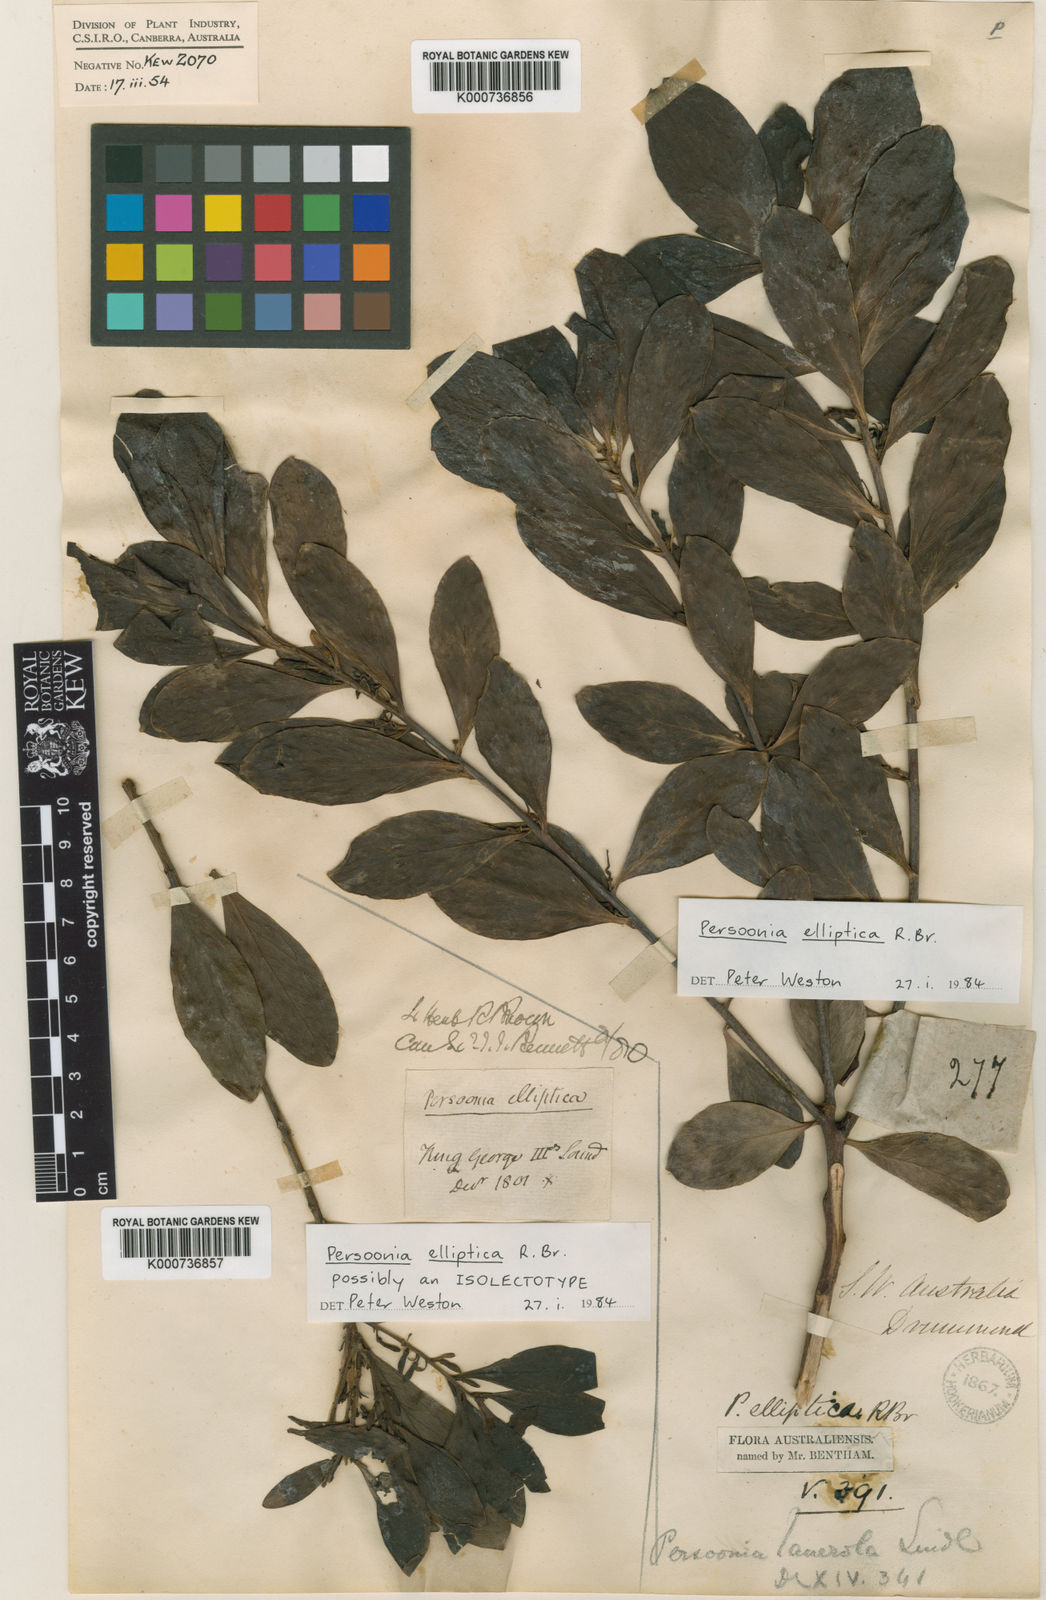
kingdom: Plantae
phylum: Tracheophyta
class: Magnoliopsida
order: Proteales
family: Proteaceae
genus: Persoonia
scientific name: Persoonia elliptica
